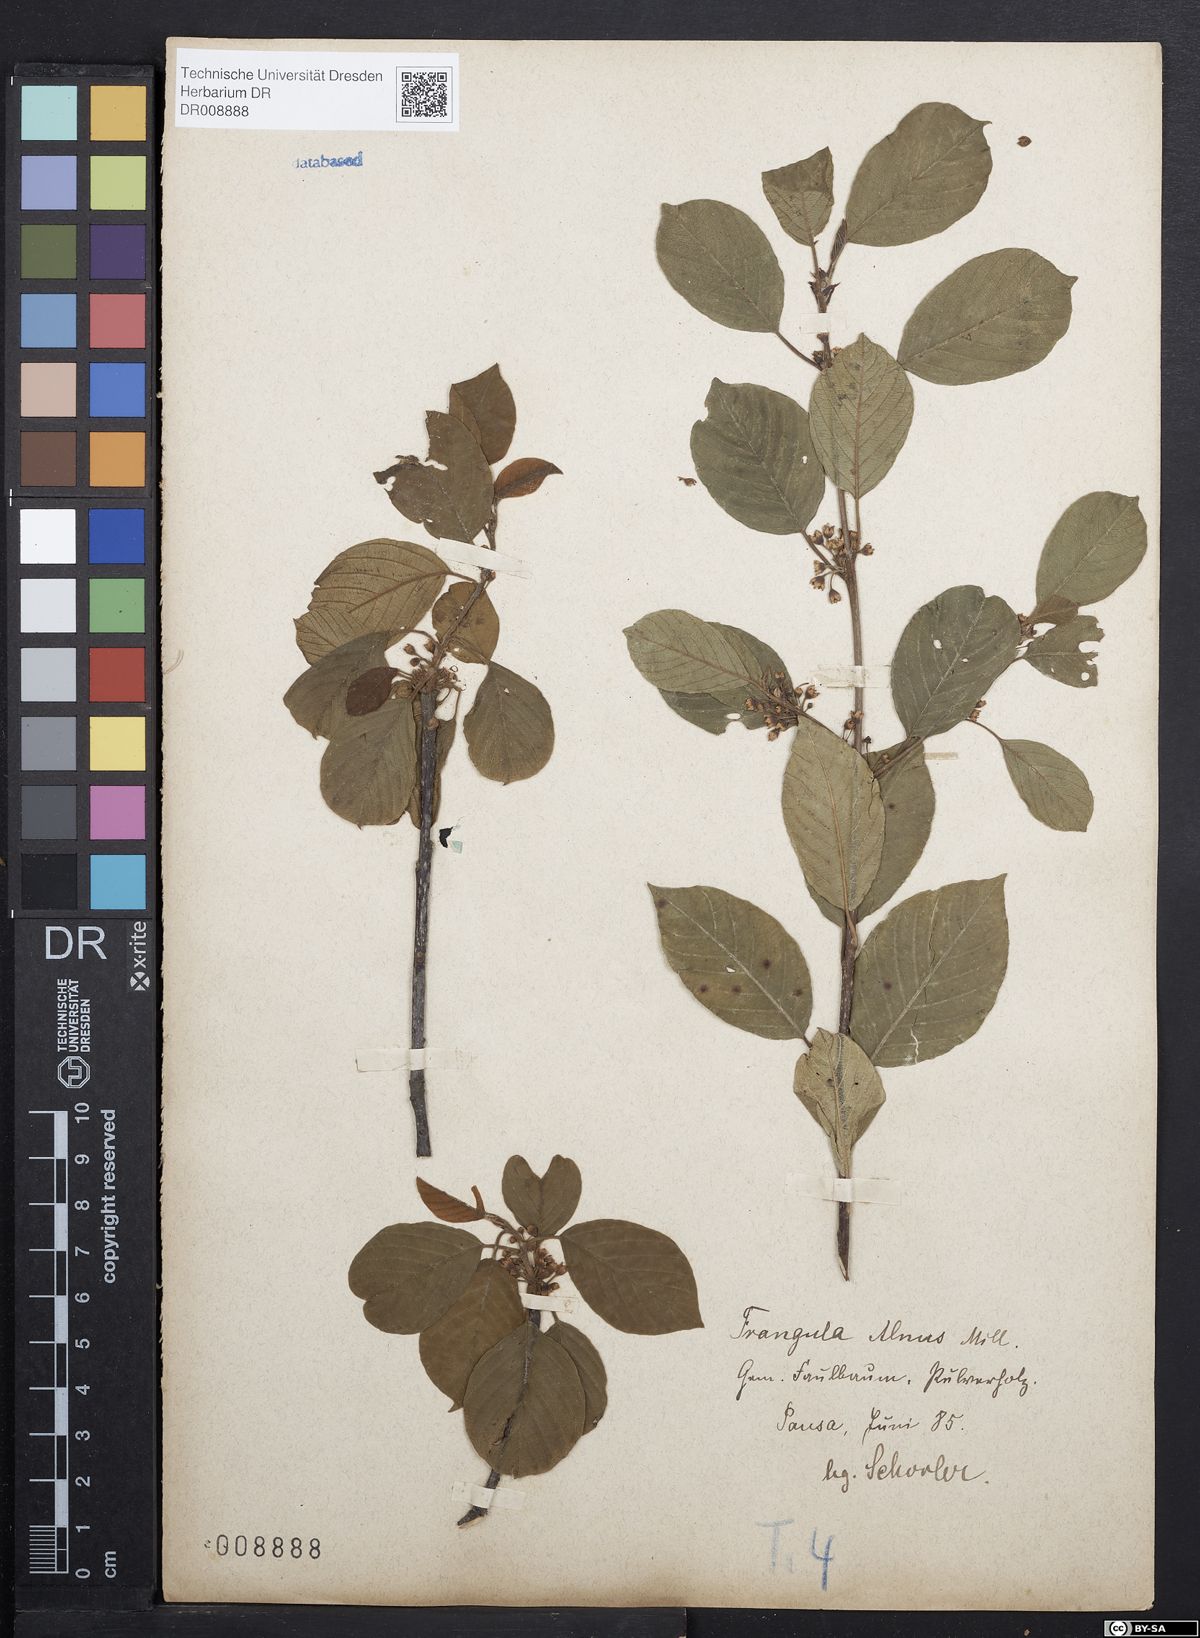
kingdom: Plantae
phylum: Tracheophyta
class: Magnoliopsida
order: Rosales
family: Rhamnaceae
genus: Frangula
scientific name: Frangula alnus
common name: Alder buckthorn
